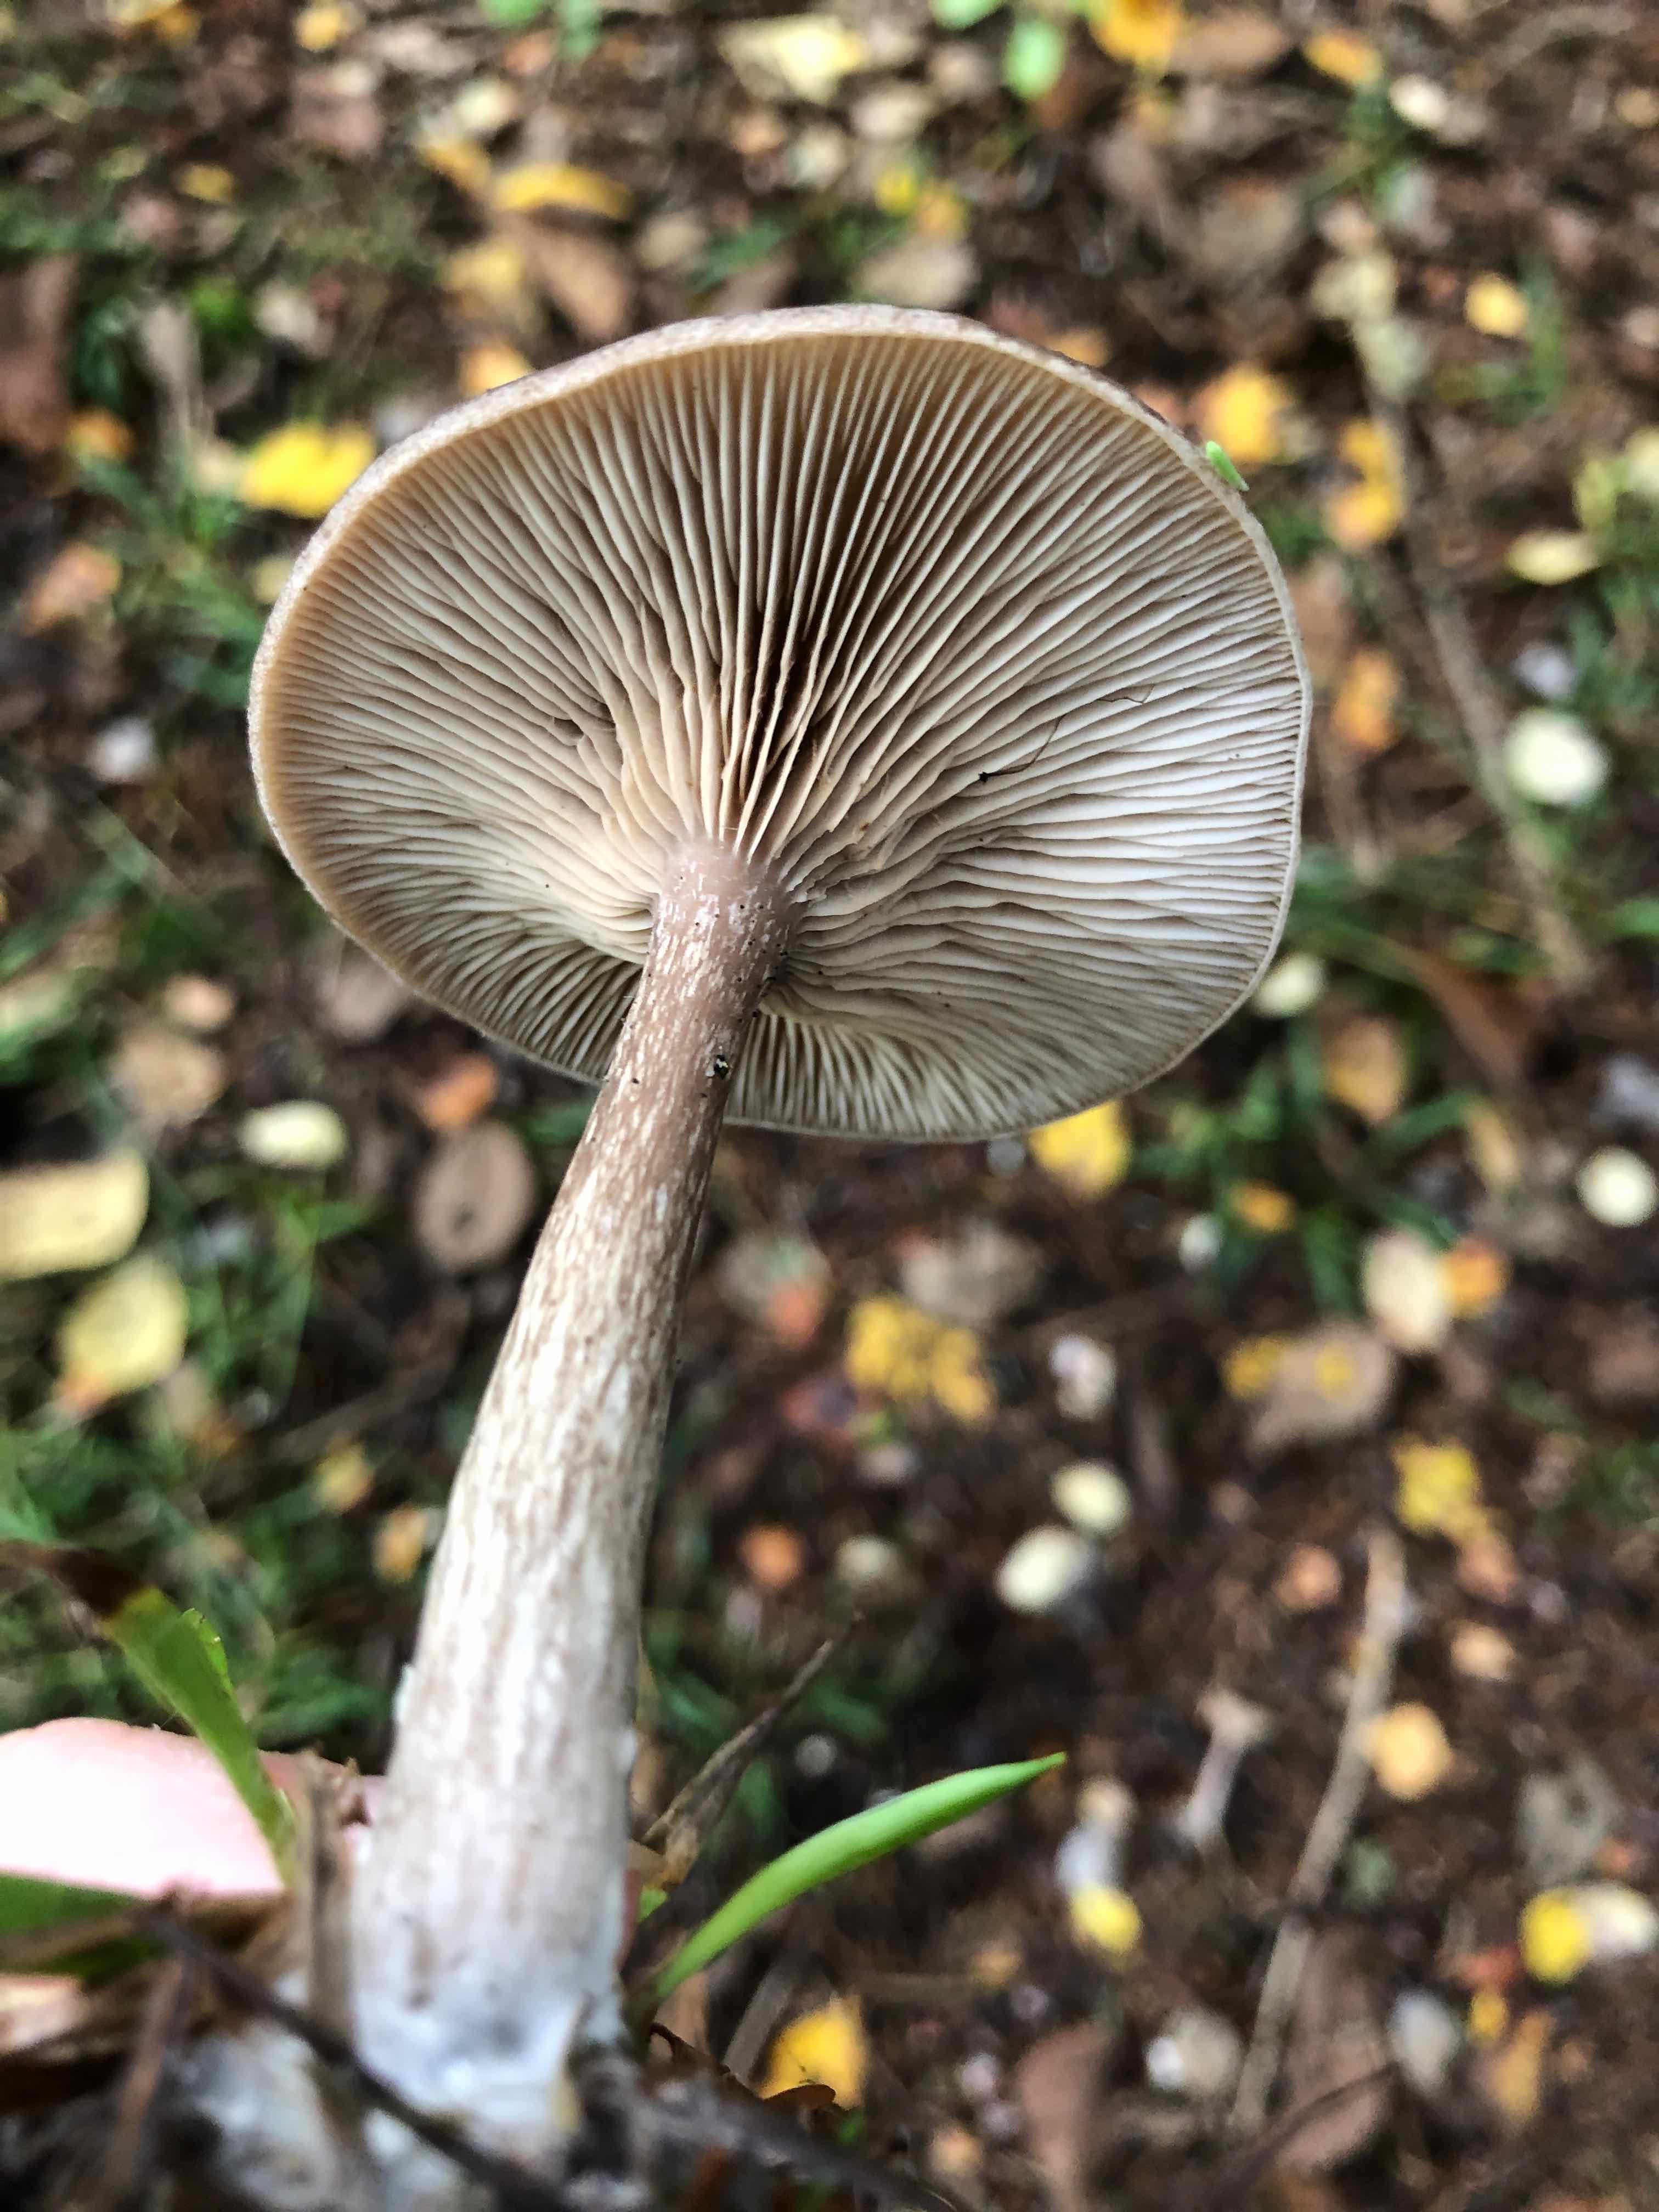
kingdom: Fungi
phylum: Basidiomycota
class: Agaricomycetes
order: Agaricales
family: Pseudoclitocybaceae
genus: Pseudoclitocybe
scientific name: Pseudoclitocybe cyathiformis
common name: almindelig bægertragthat
